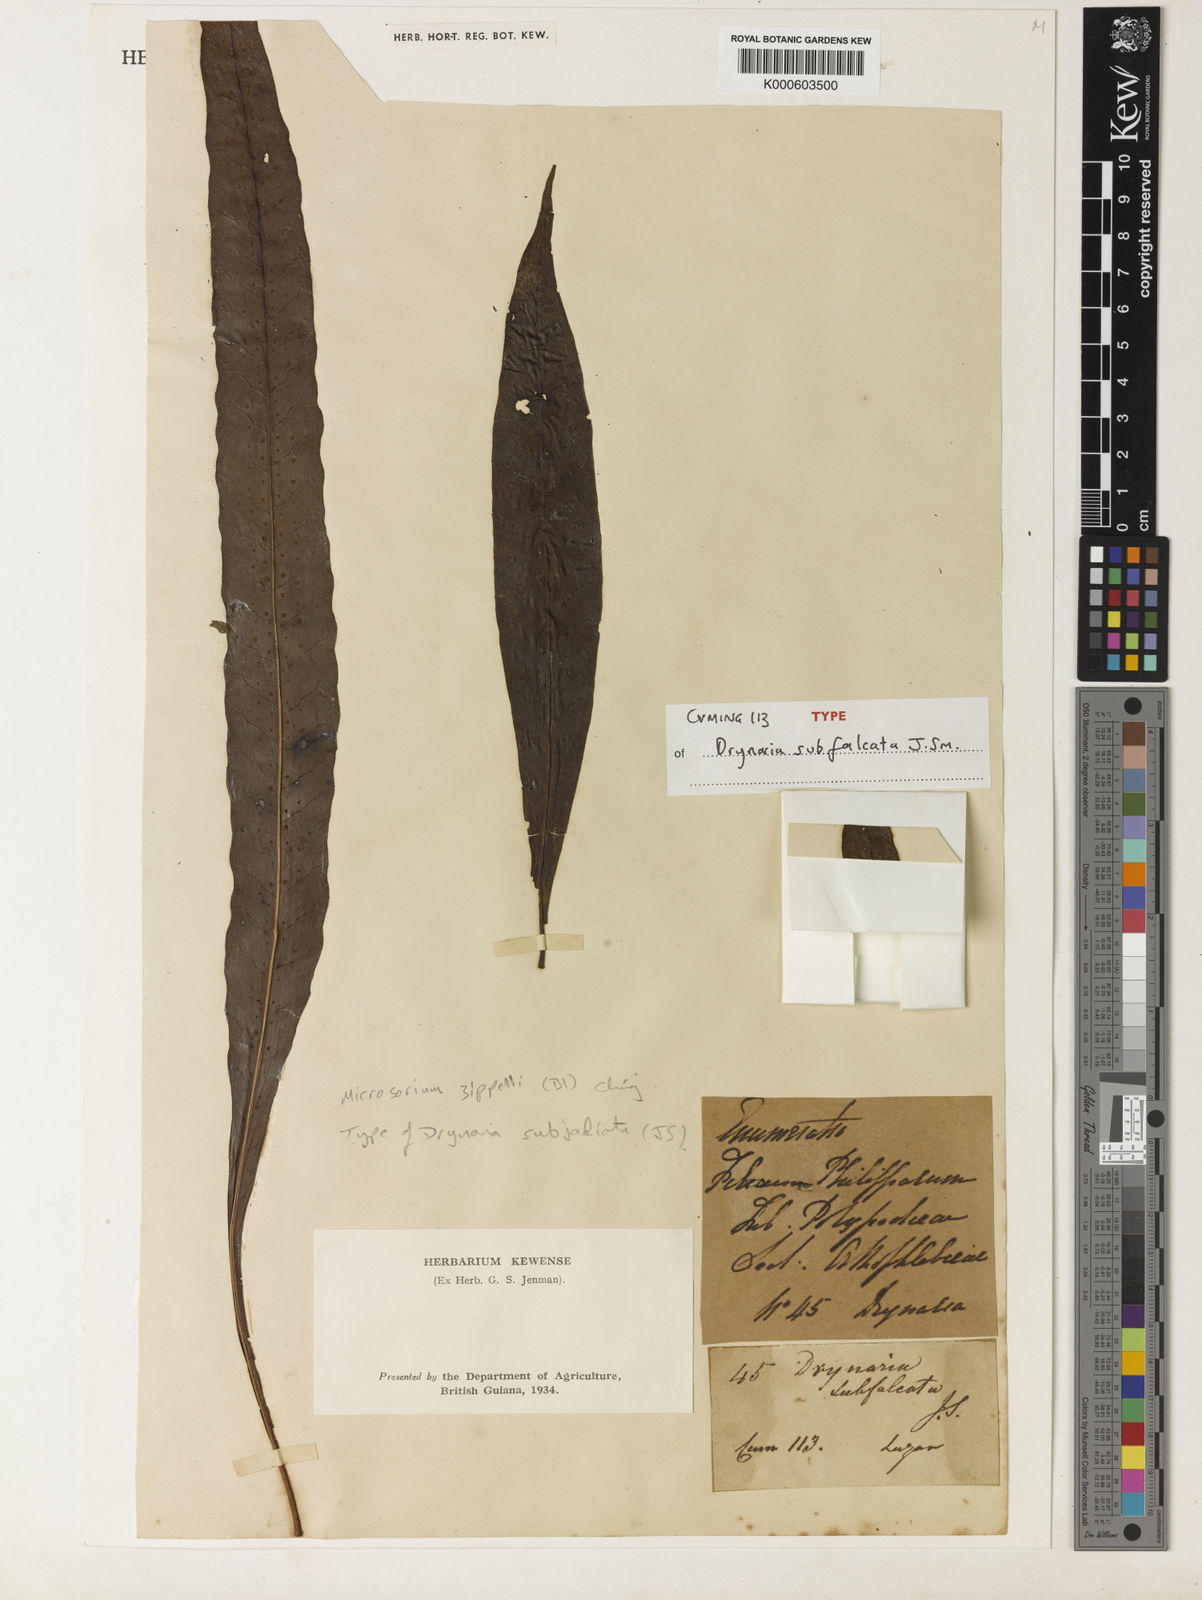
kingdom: Plantae
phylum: Tracheophyta
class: Polypodiopsida
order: Polypodiales
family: Polypodiaceae
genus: Lepisorus
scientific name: Lepisorus zippelii
